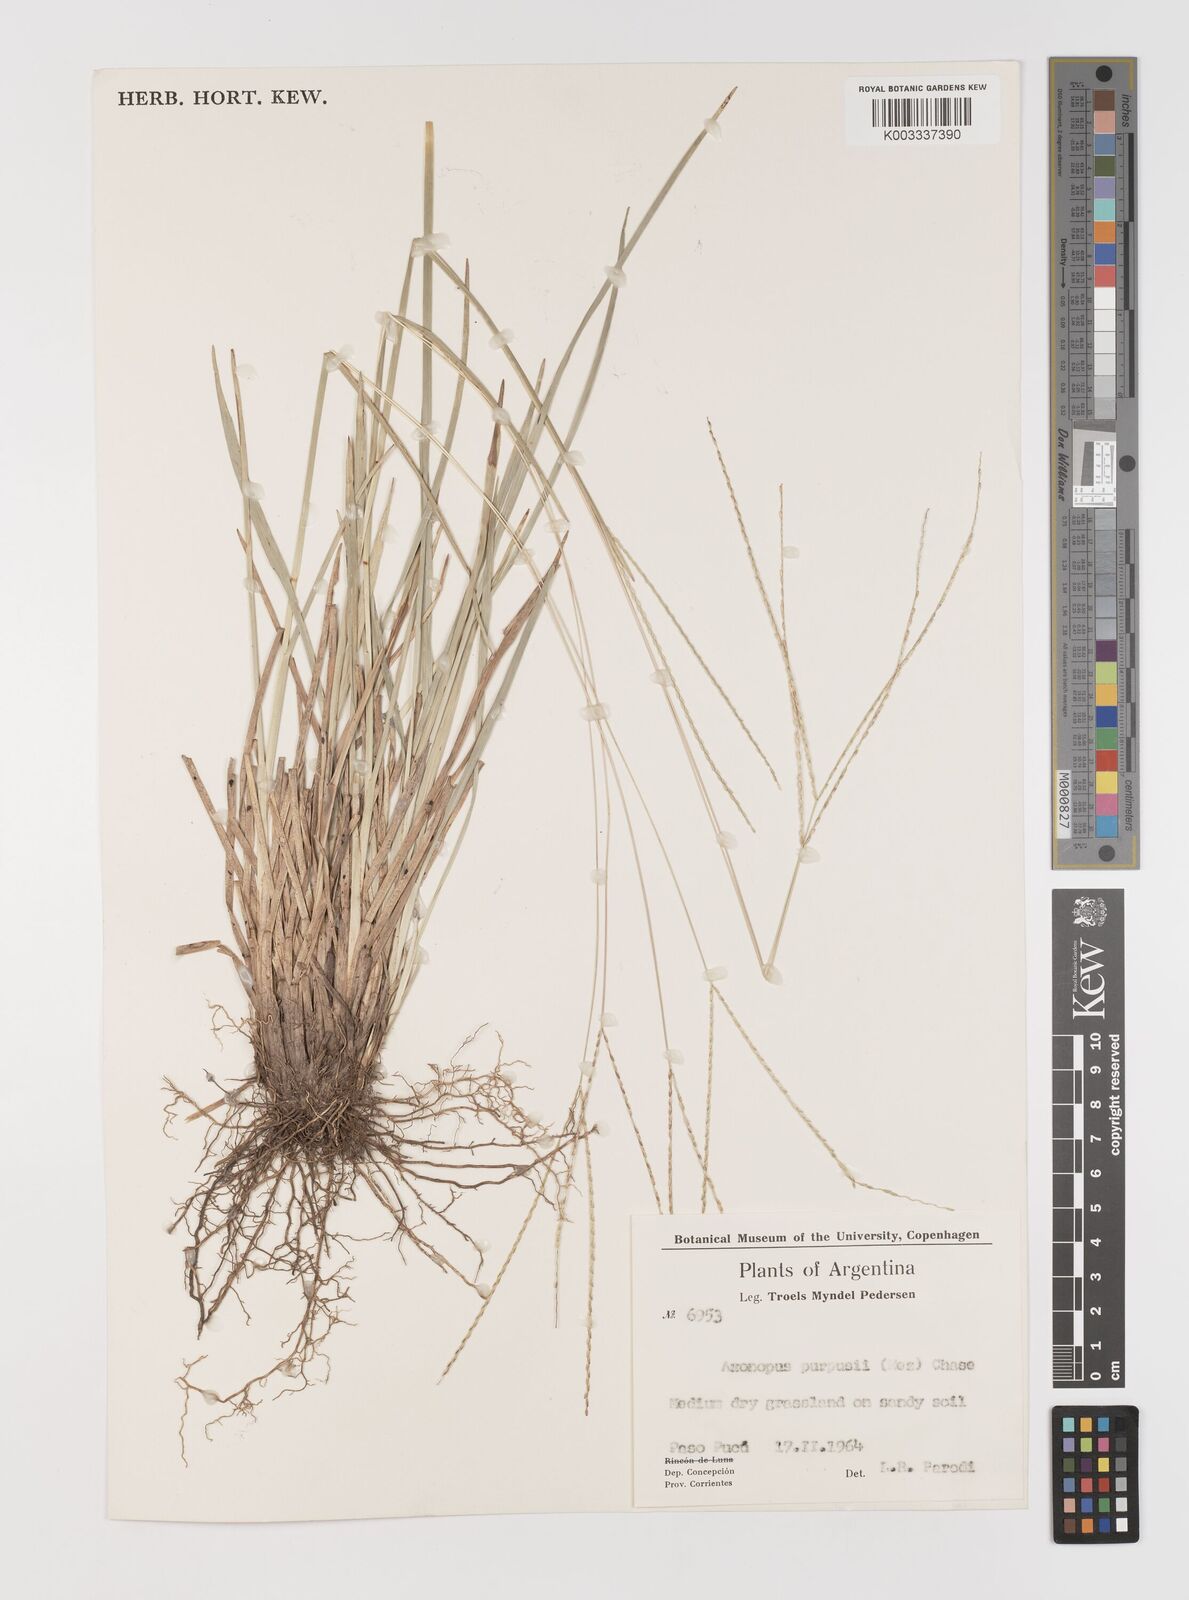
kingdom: Plantae
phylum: Tracheophyta
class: Liliopsida
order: Poales
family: Poaceae
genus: Axonopus
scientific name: Axonopus fissifolius
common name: Common carpetgrass
